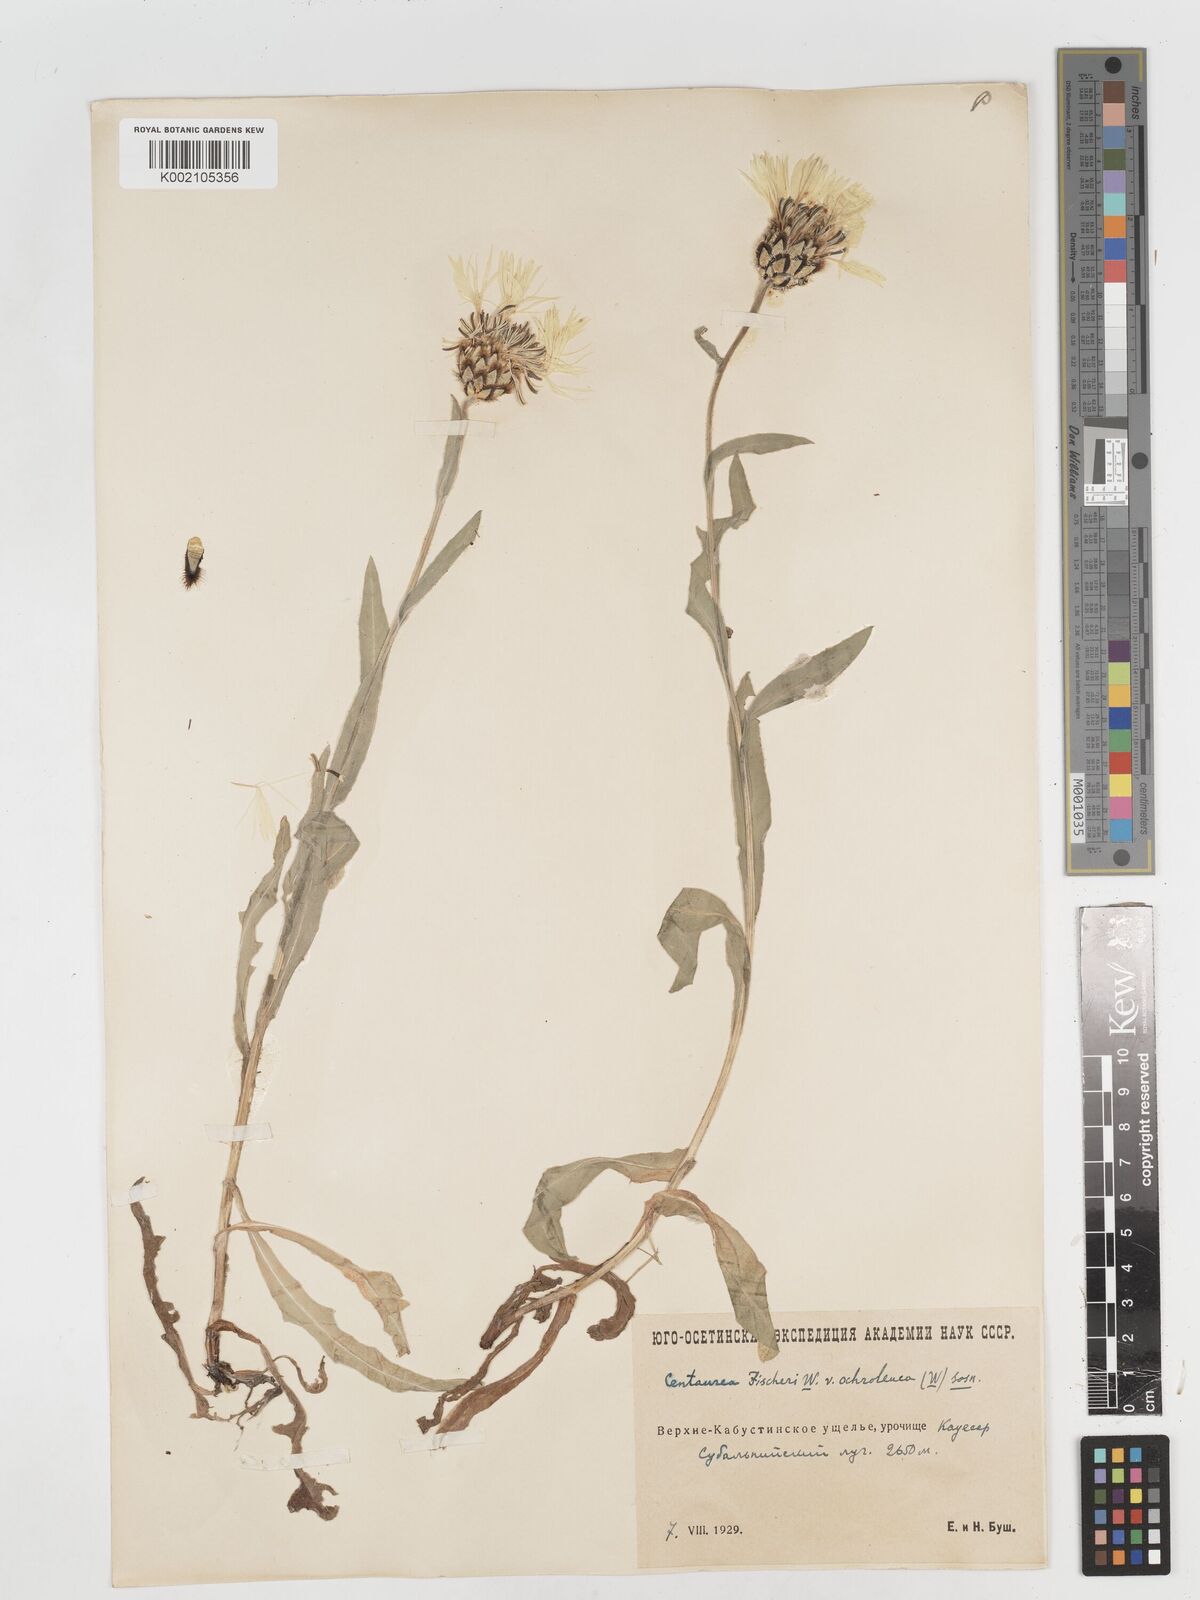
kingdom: Plantae
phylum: Tracheophyta
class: Magnoliopsida
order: Asterales
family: Asteraceae
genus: Centaurea
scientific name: Centaurea cheiranthifolia
